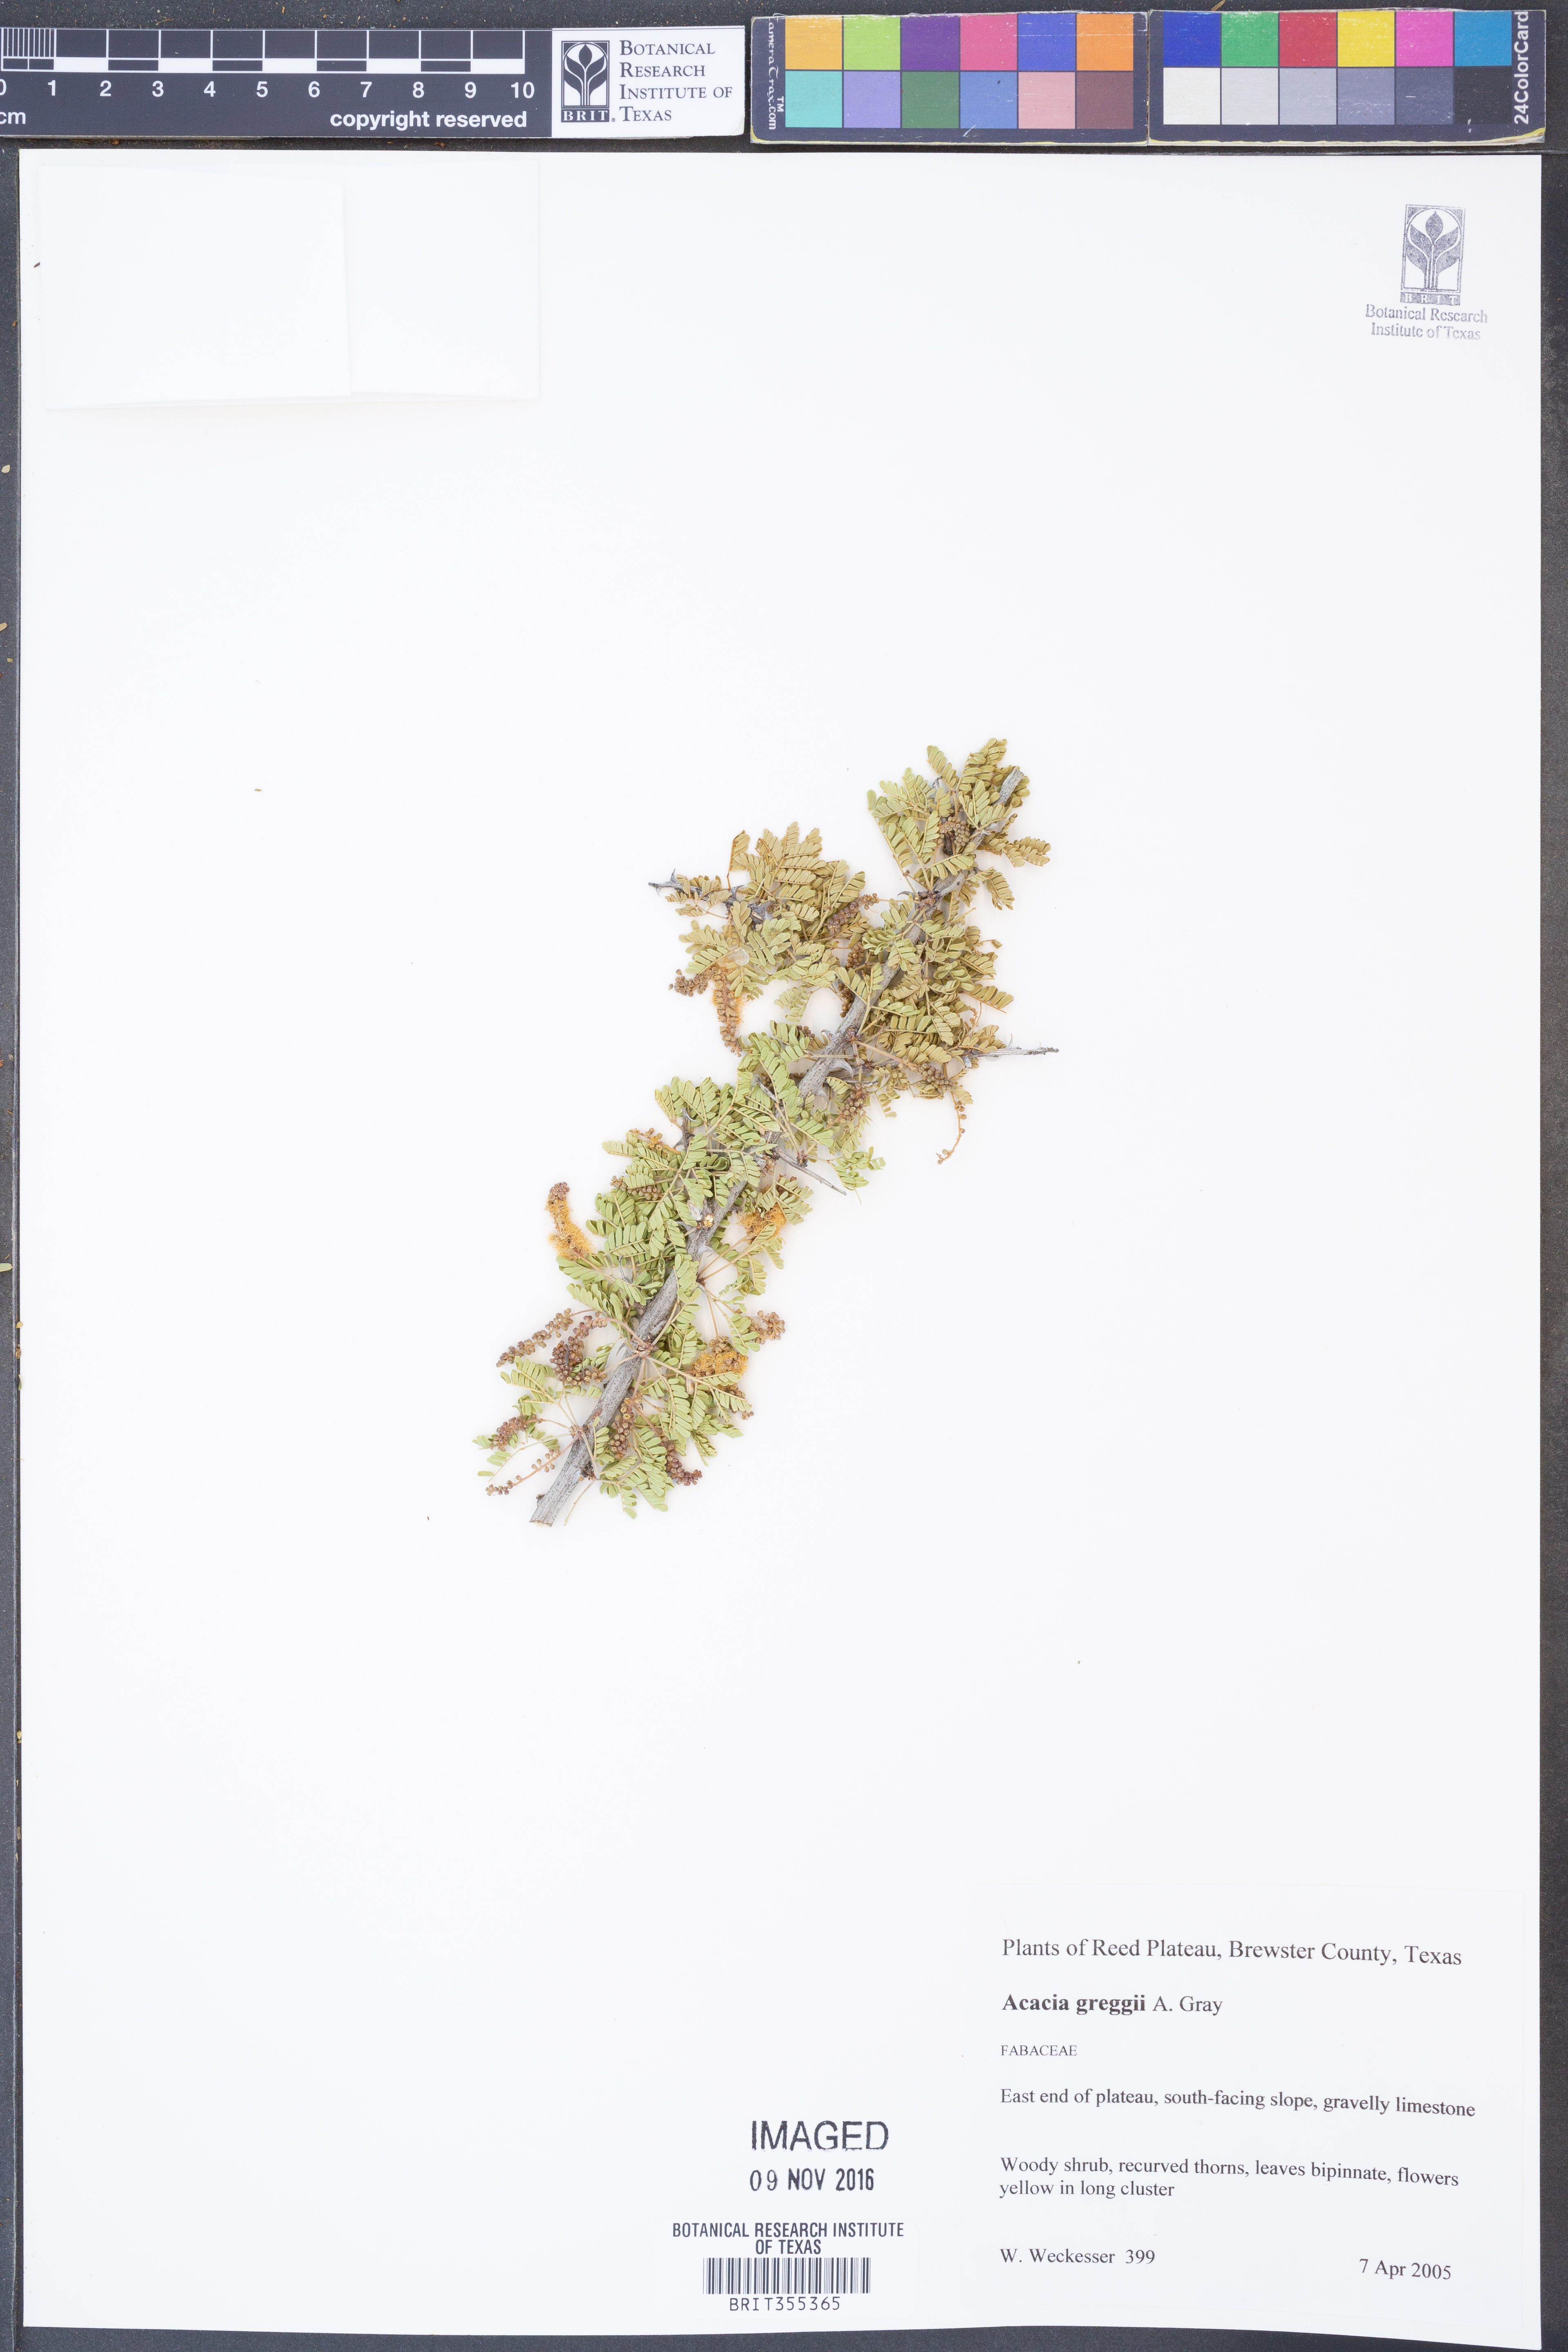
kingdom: Plantae
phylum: Tracheophyta
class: Magnoliopsida
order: Fabales
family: Fabaceae
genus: Senegalia
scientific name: Senegalia greggii
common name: Texas-mimosa
